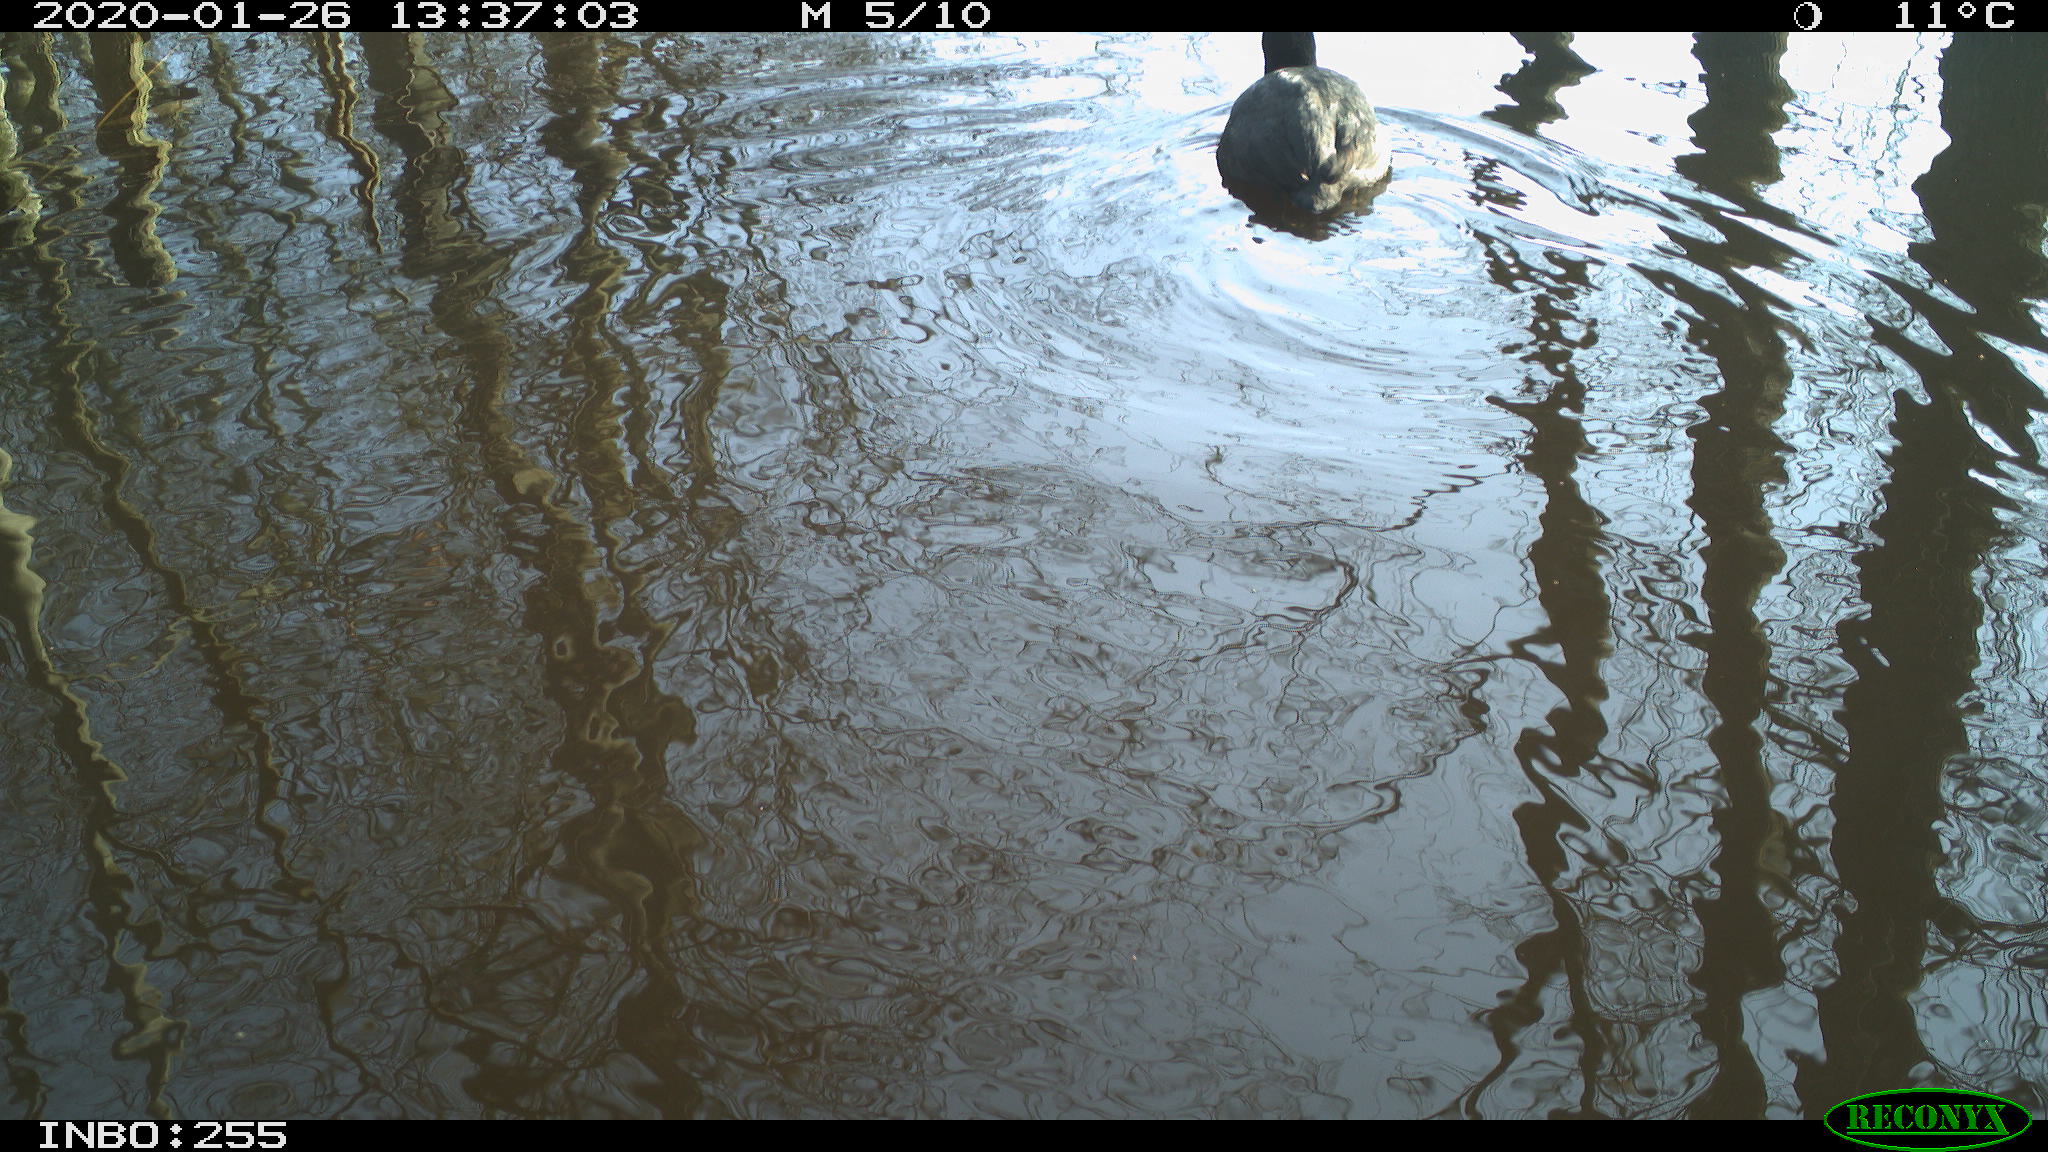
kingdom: Animalia
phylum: Chordata
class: Aves
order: Gruiformes
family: Rallidae
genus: Fulica
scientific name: Fulica atra
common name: Eurasian coot
